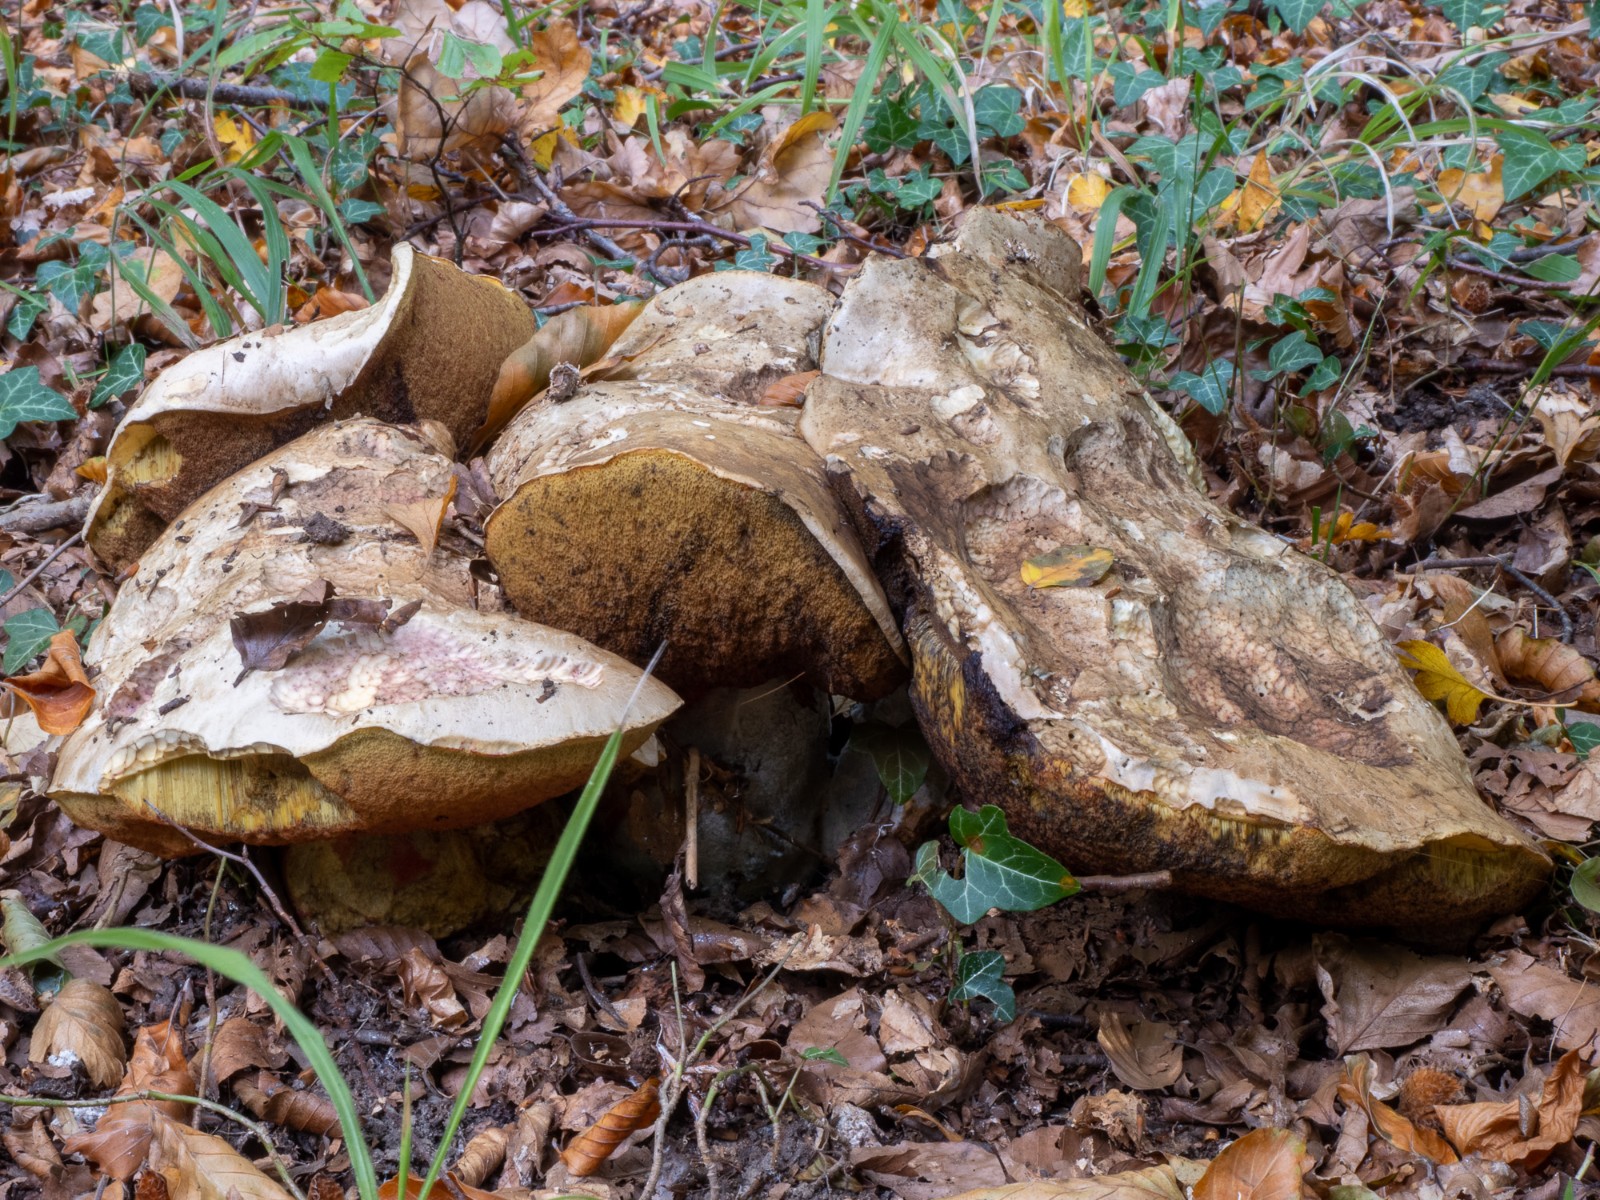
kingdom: Fungi
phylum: Basidiomycota
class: Agaricomycetes
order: Boletales
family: Boletaceae
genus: Rubroboletus
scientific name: Rubroboletus satanas
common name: Satans rørhat
